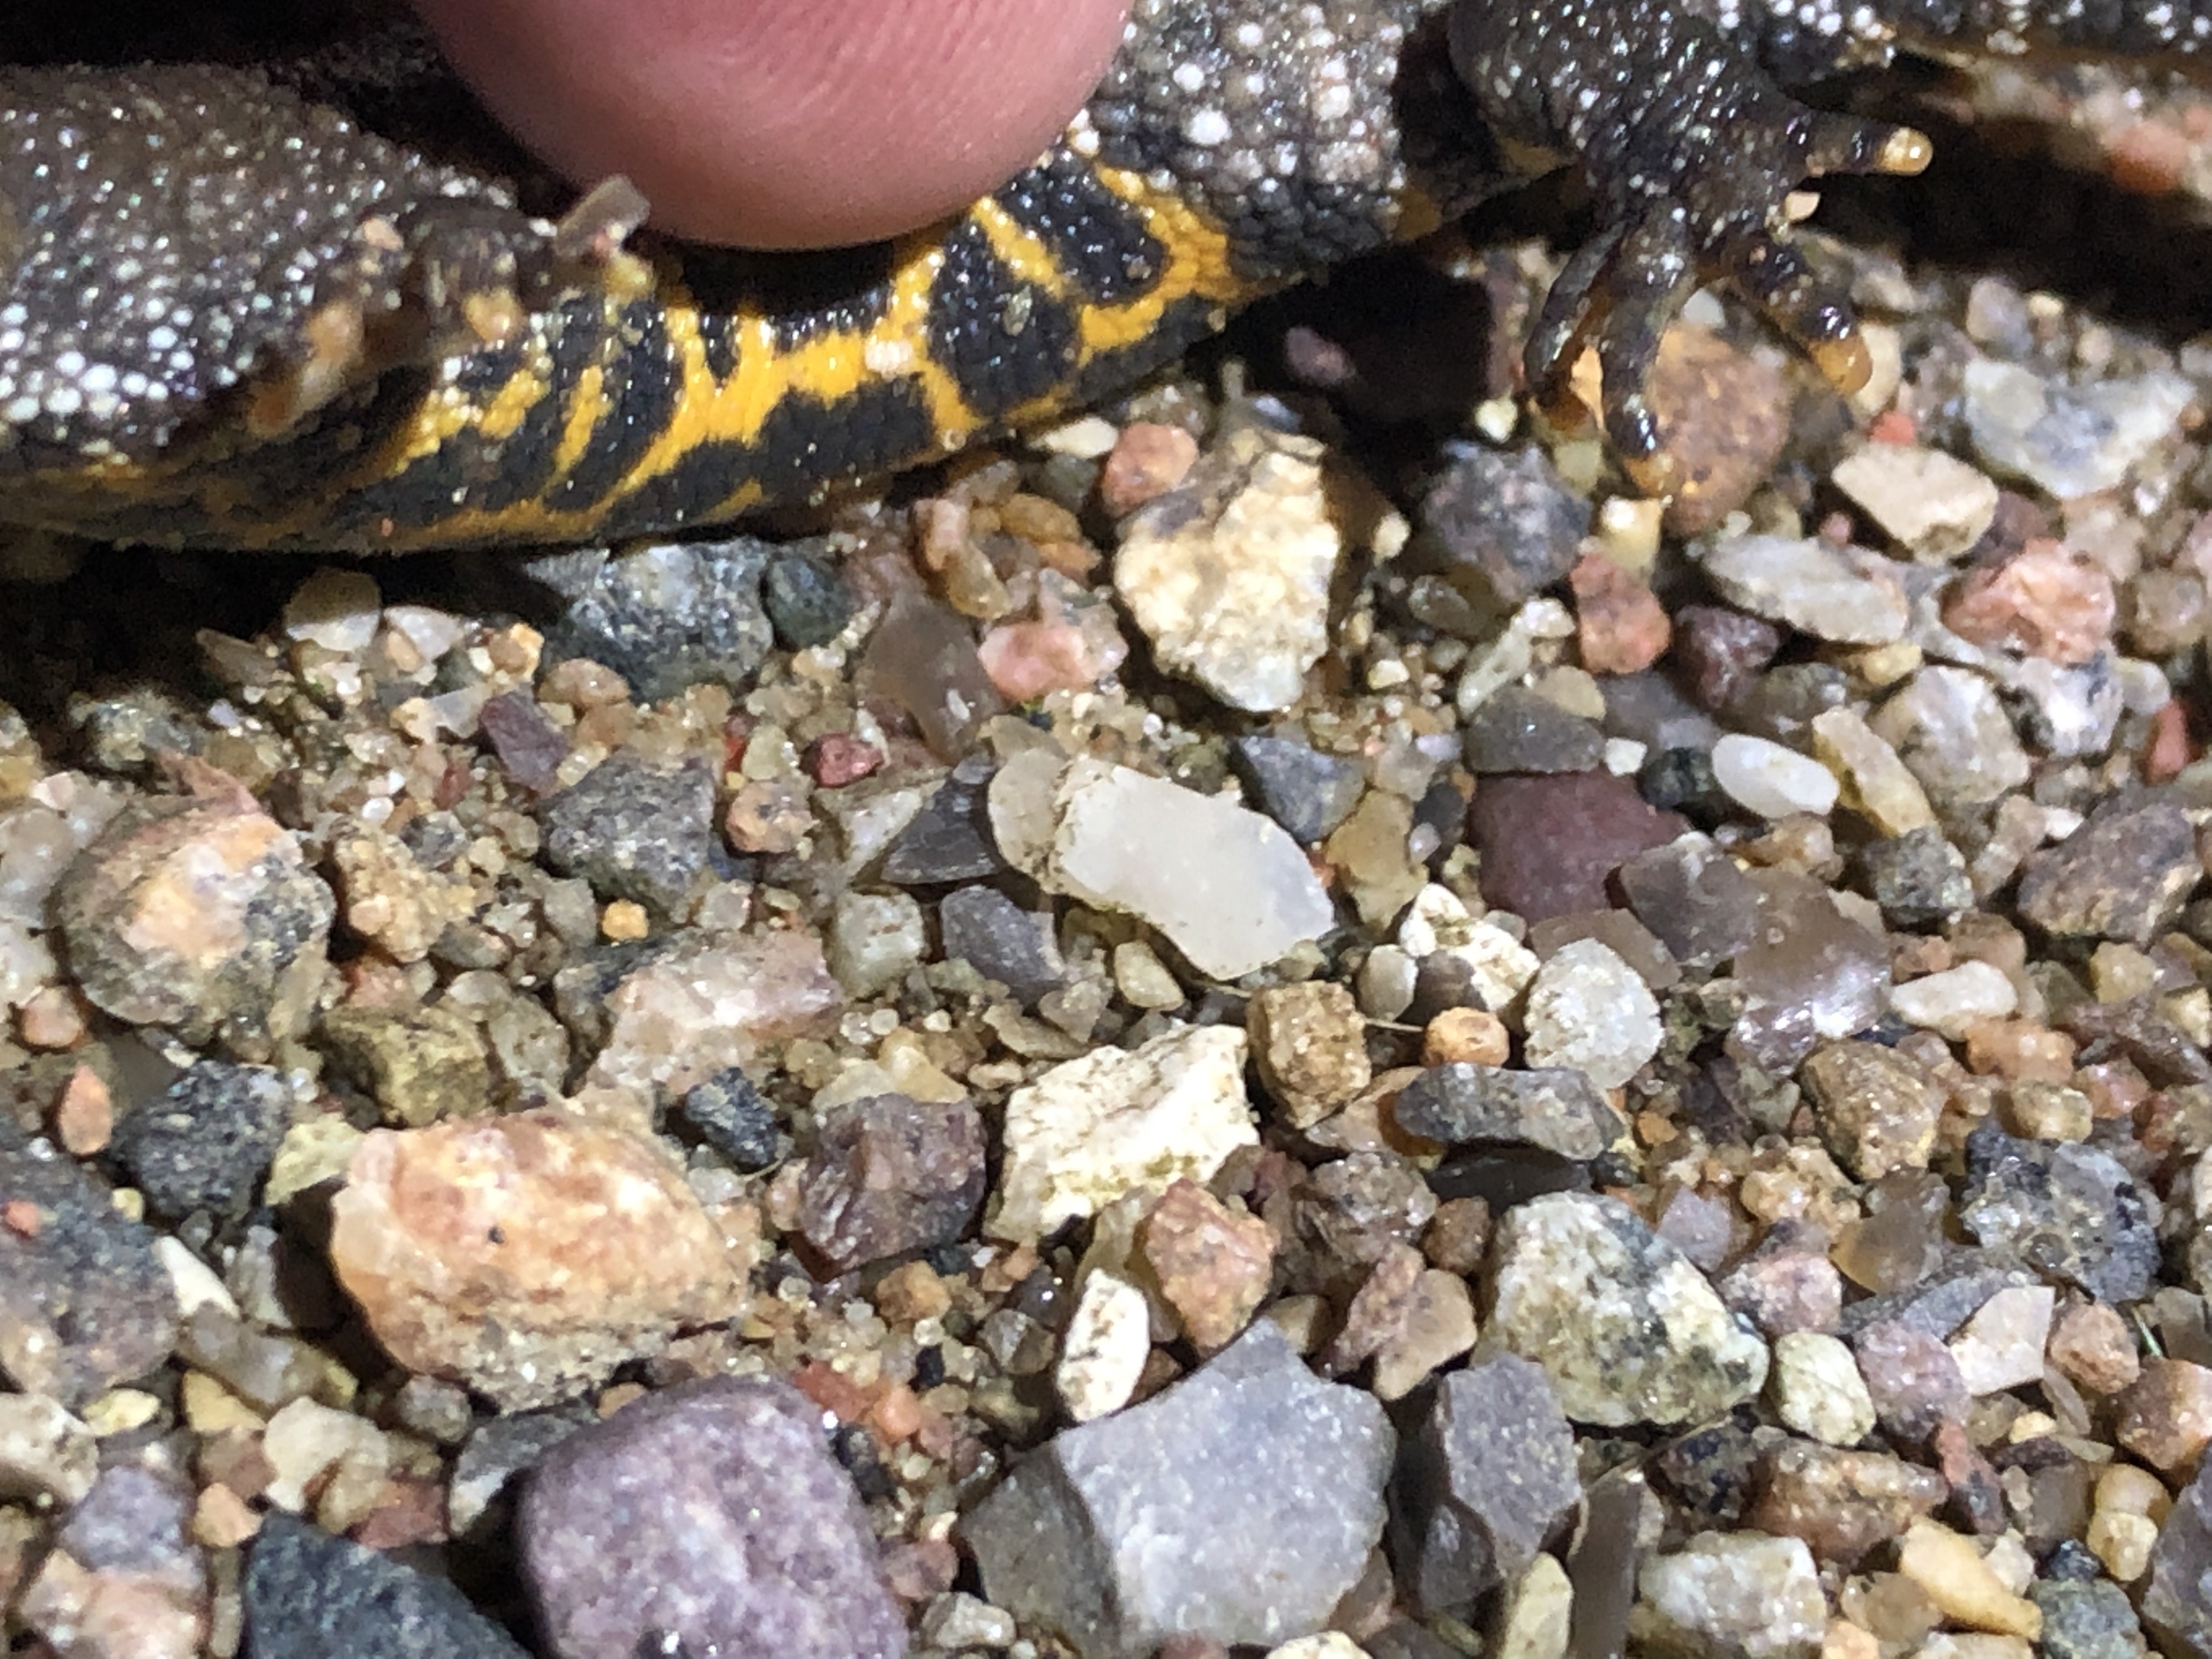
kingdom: Animalia
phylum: Chordata
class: Amphibia
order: Caudata
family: Salamandridae
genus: Triturus
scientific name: Triturus cristatus
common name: Stor vandsalamander
